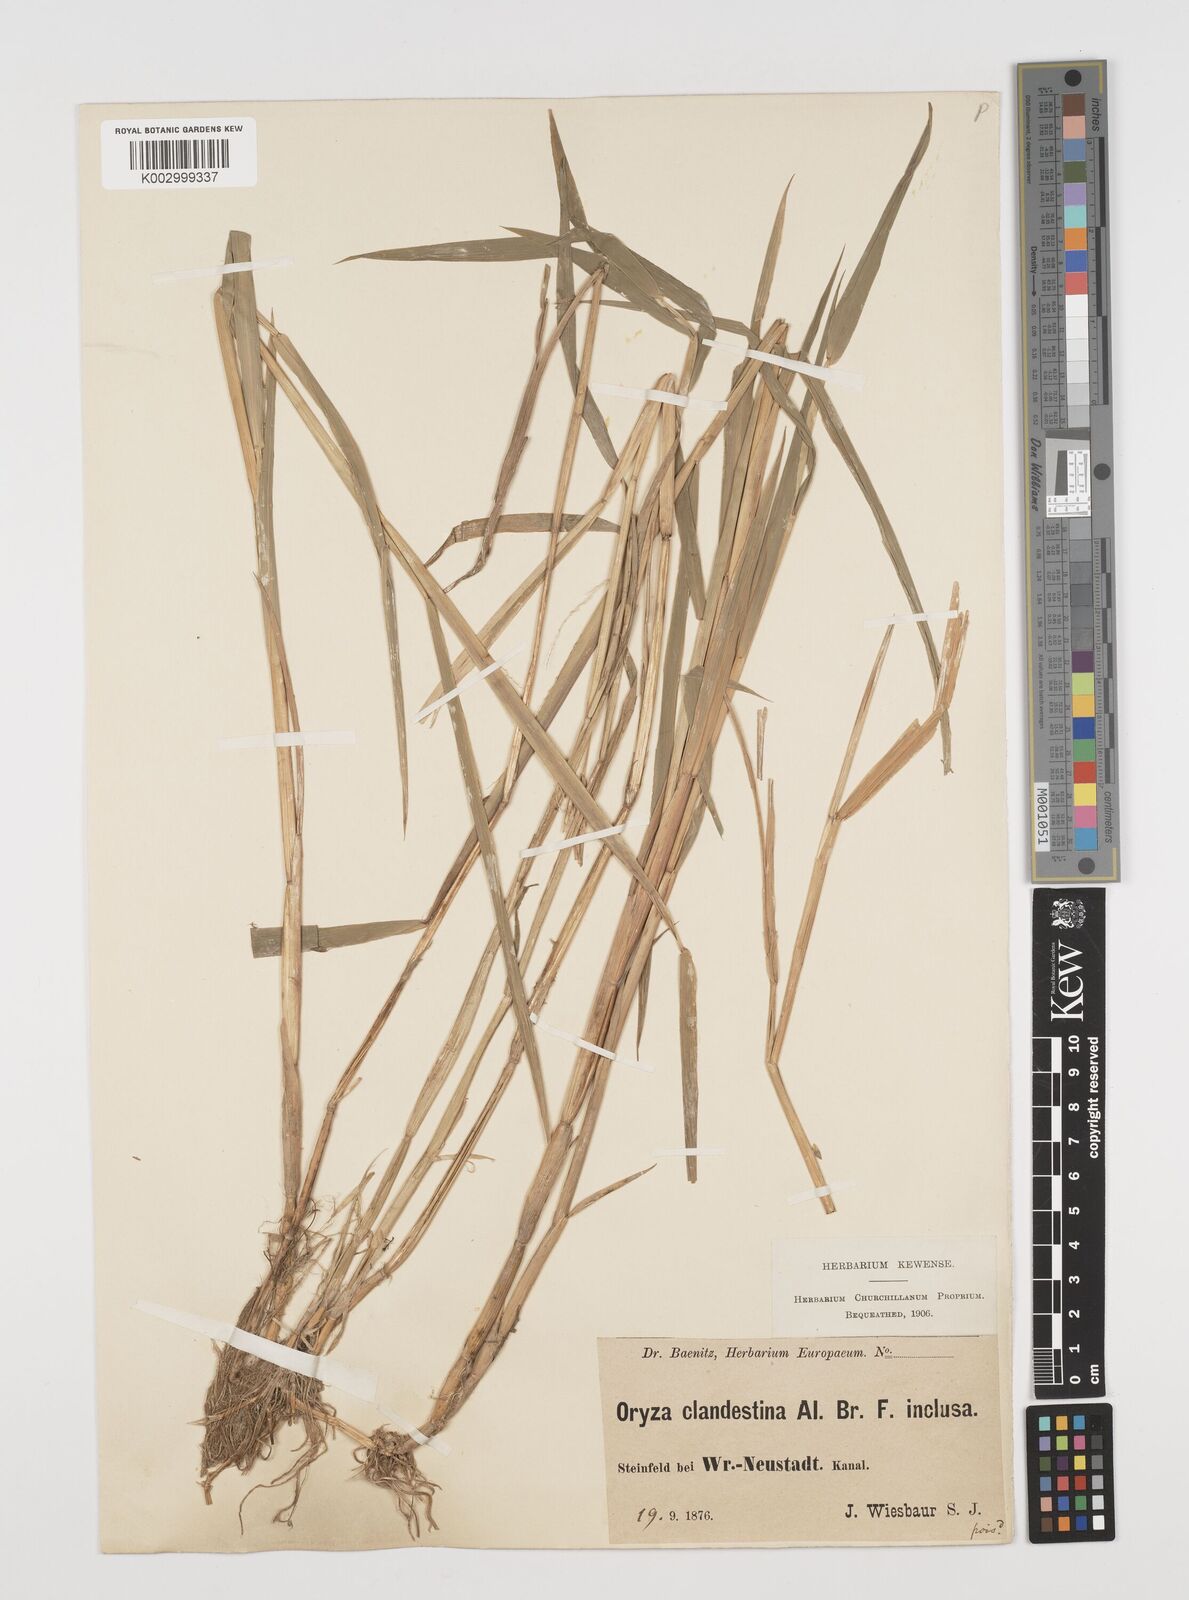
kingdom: Plantae
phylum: Tracheophyta
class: Liliopsida
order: Poales
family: Poaceae
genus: Leersia
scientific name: Leersia oryzoides
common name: Cut-grass
